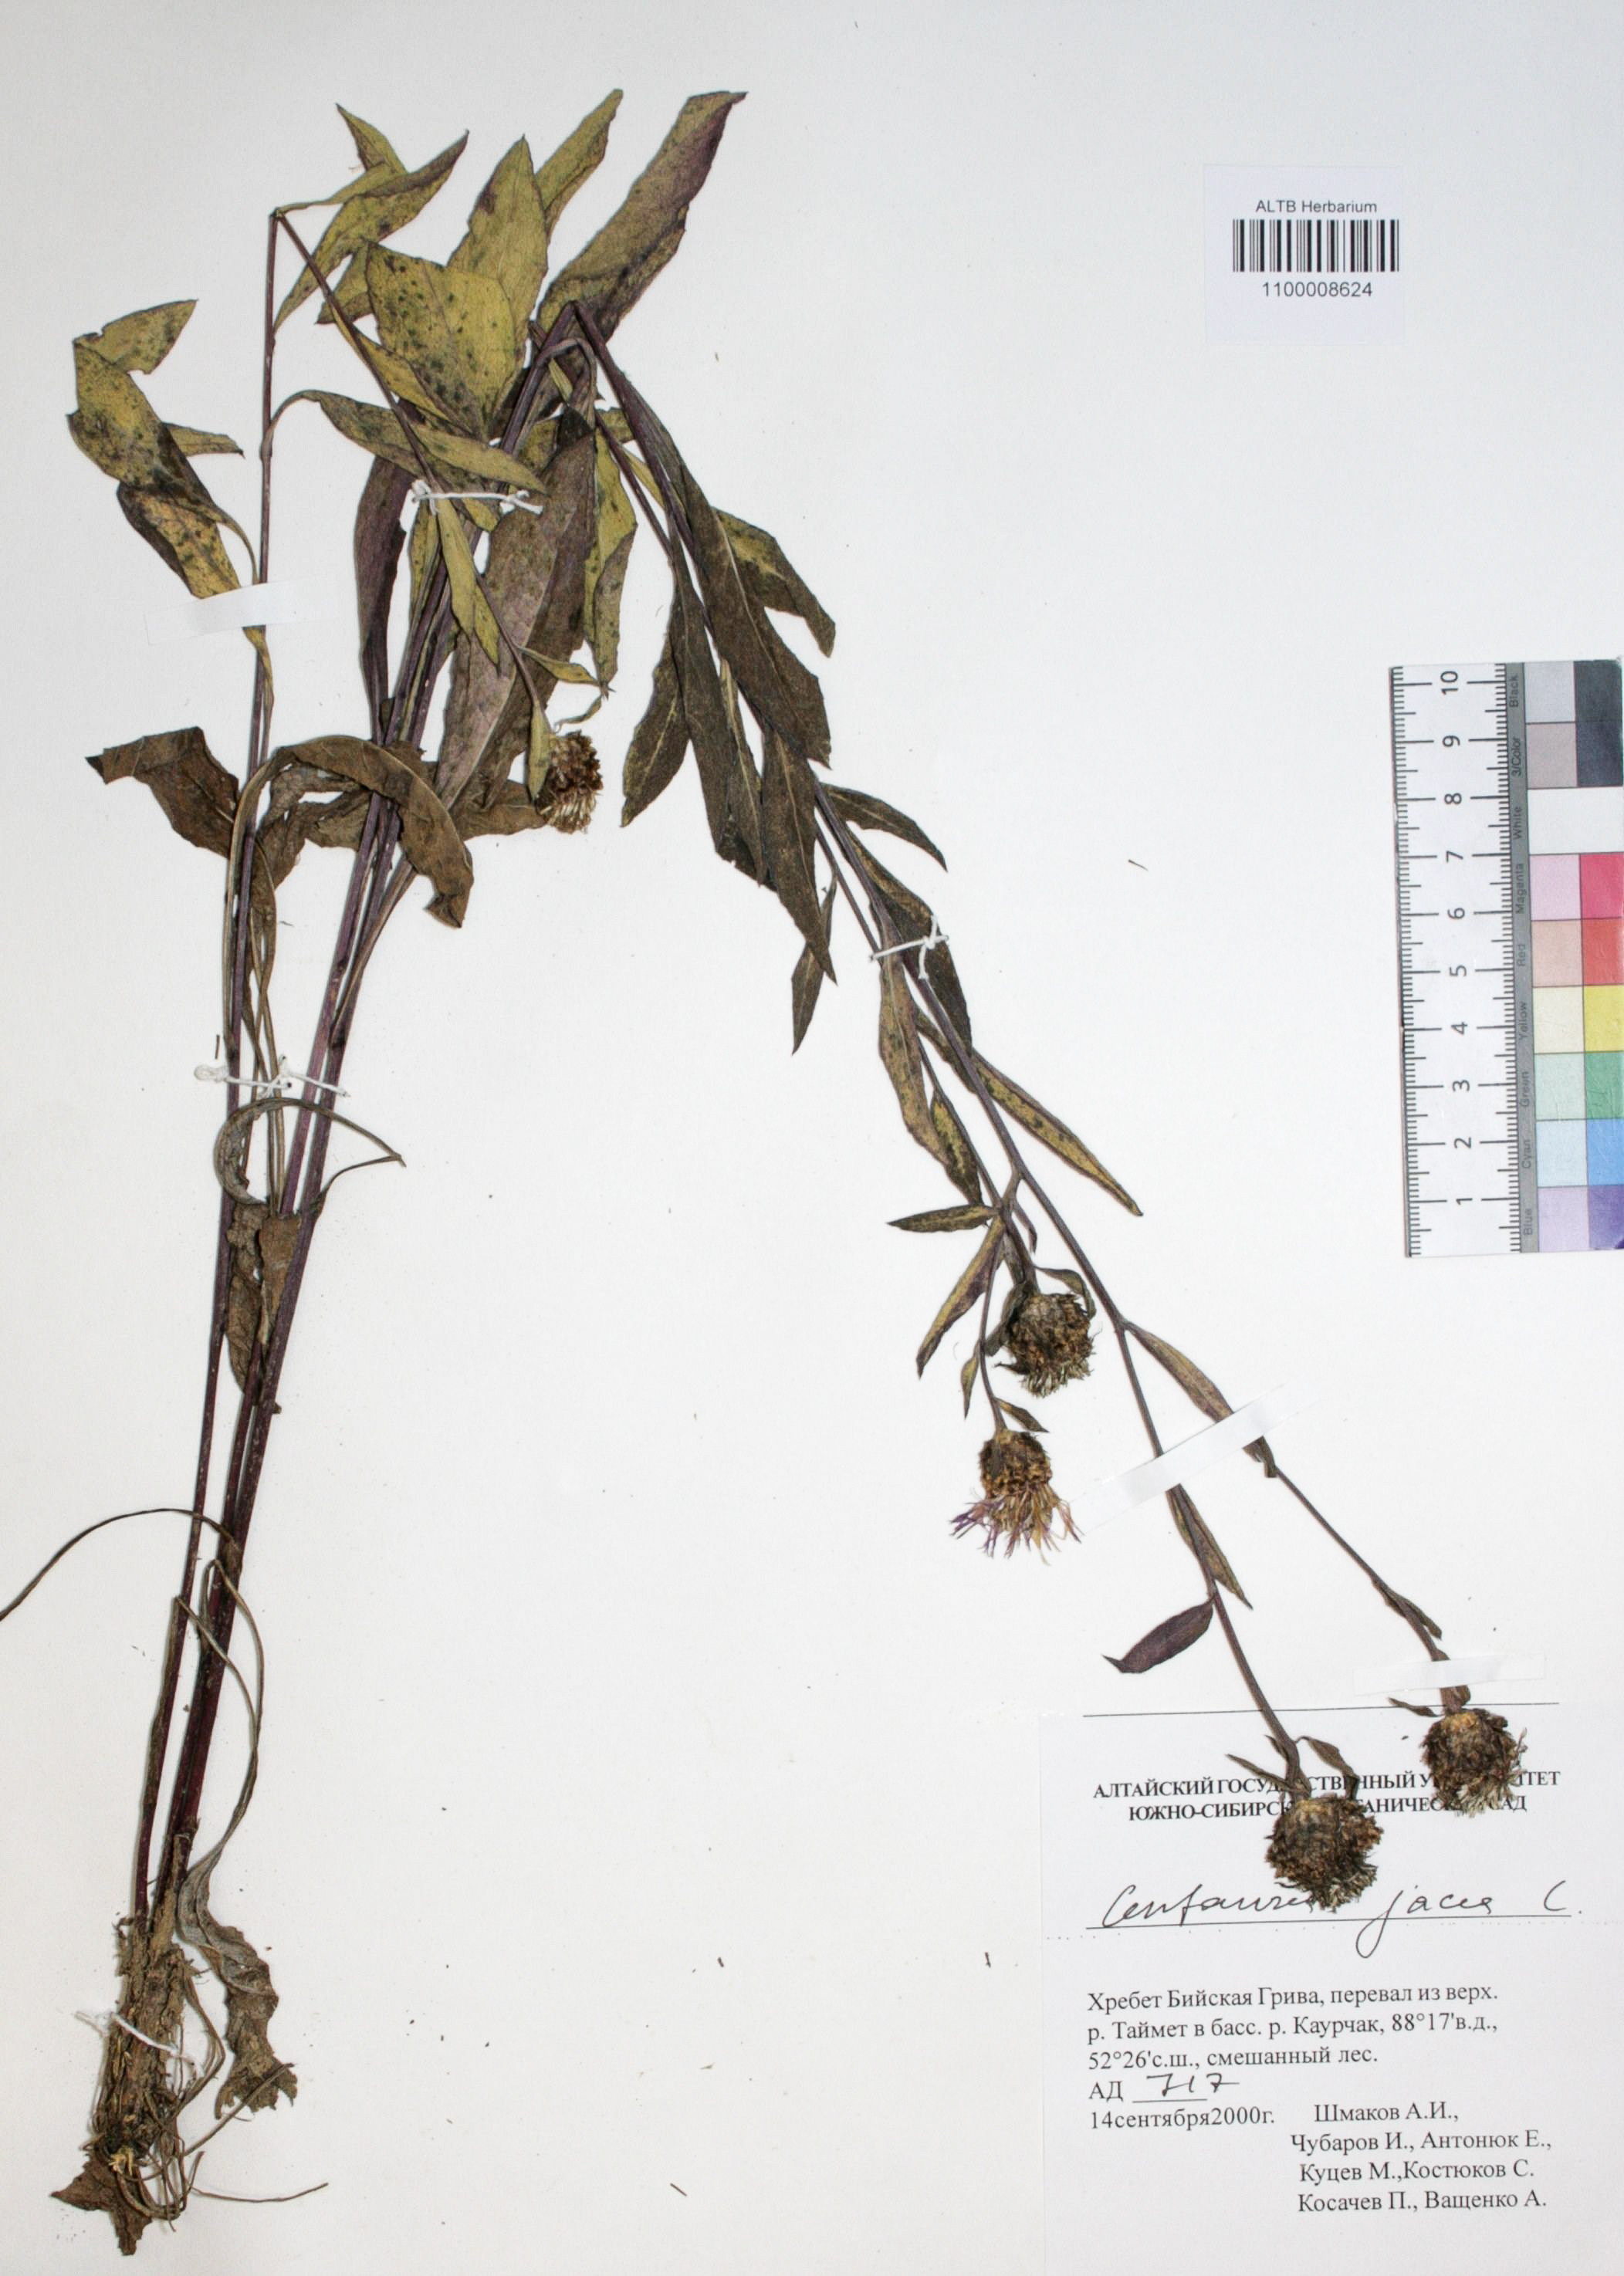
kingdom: Plantae
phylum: Tracheophyta
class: Magnoliopsida
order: Asterales
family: Asteraceae
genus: Centaurea
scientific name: Centaurea jacea
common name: Brown knapweed
